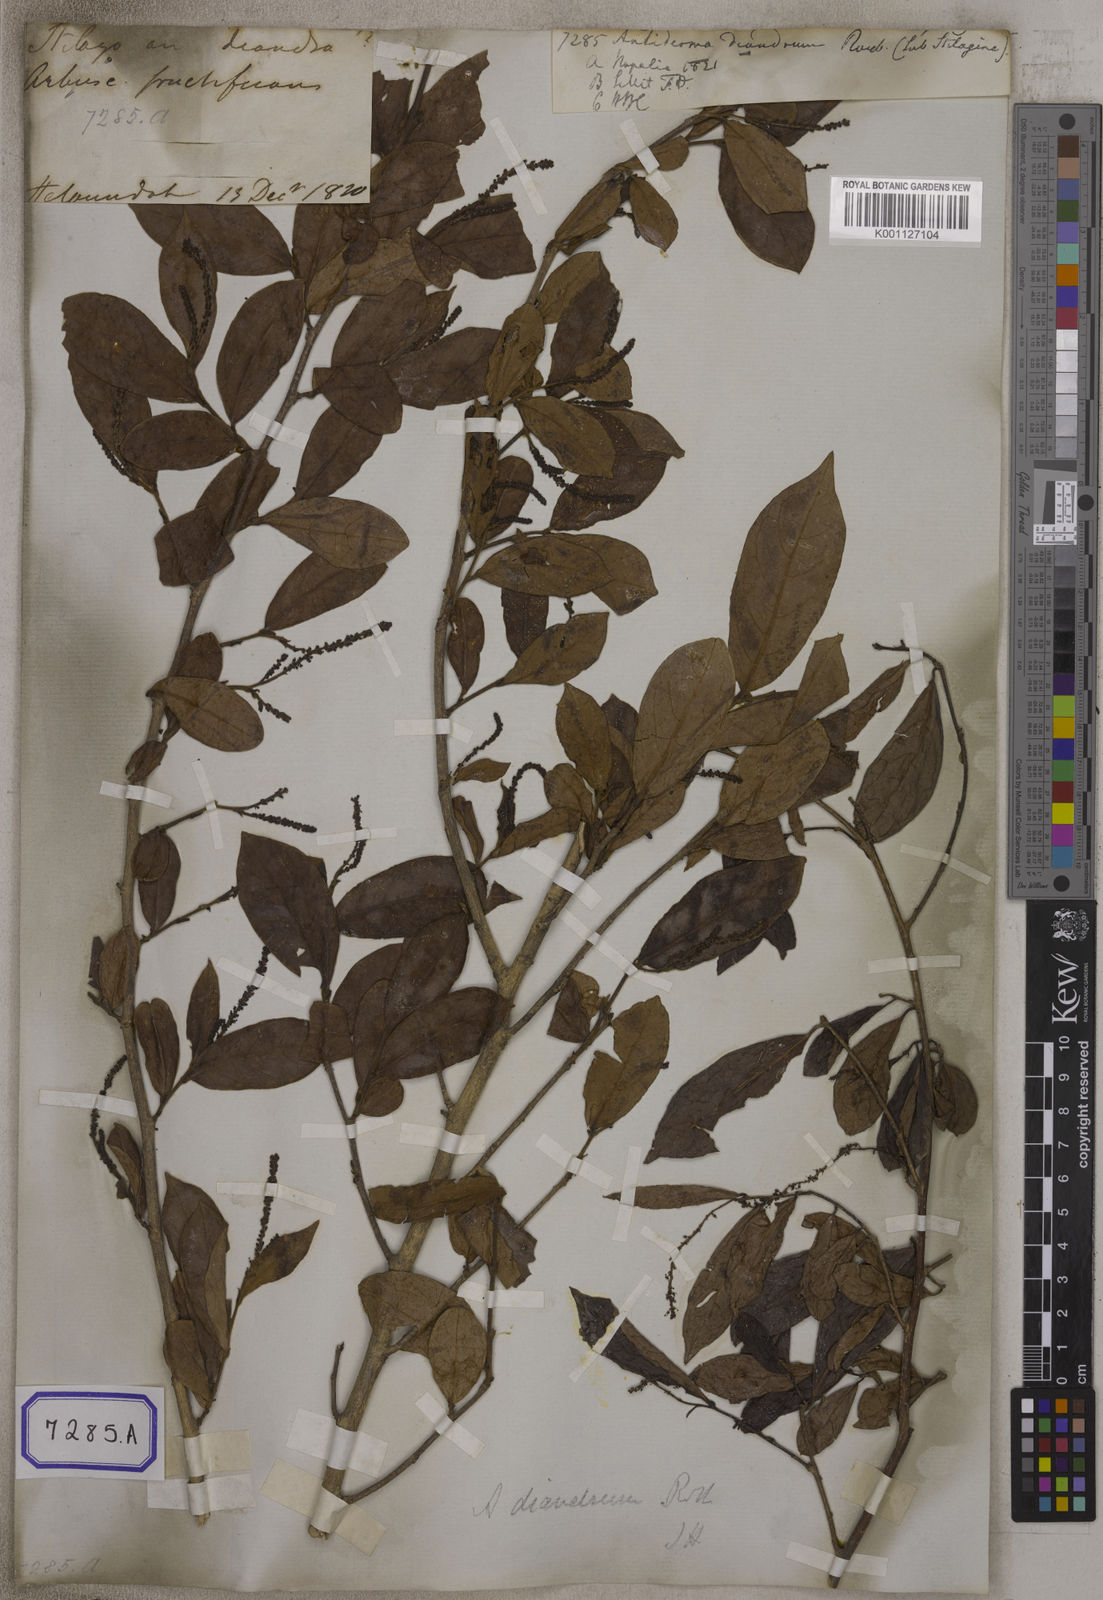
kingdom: Plantae
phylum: Tracheophyta
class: Magnoliopsida
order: Malpighiales
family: Phyllanthaceae
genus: Antidesma
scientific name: Antidesma
